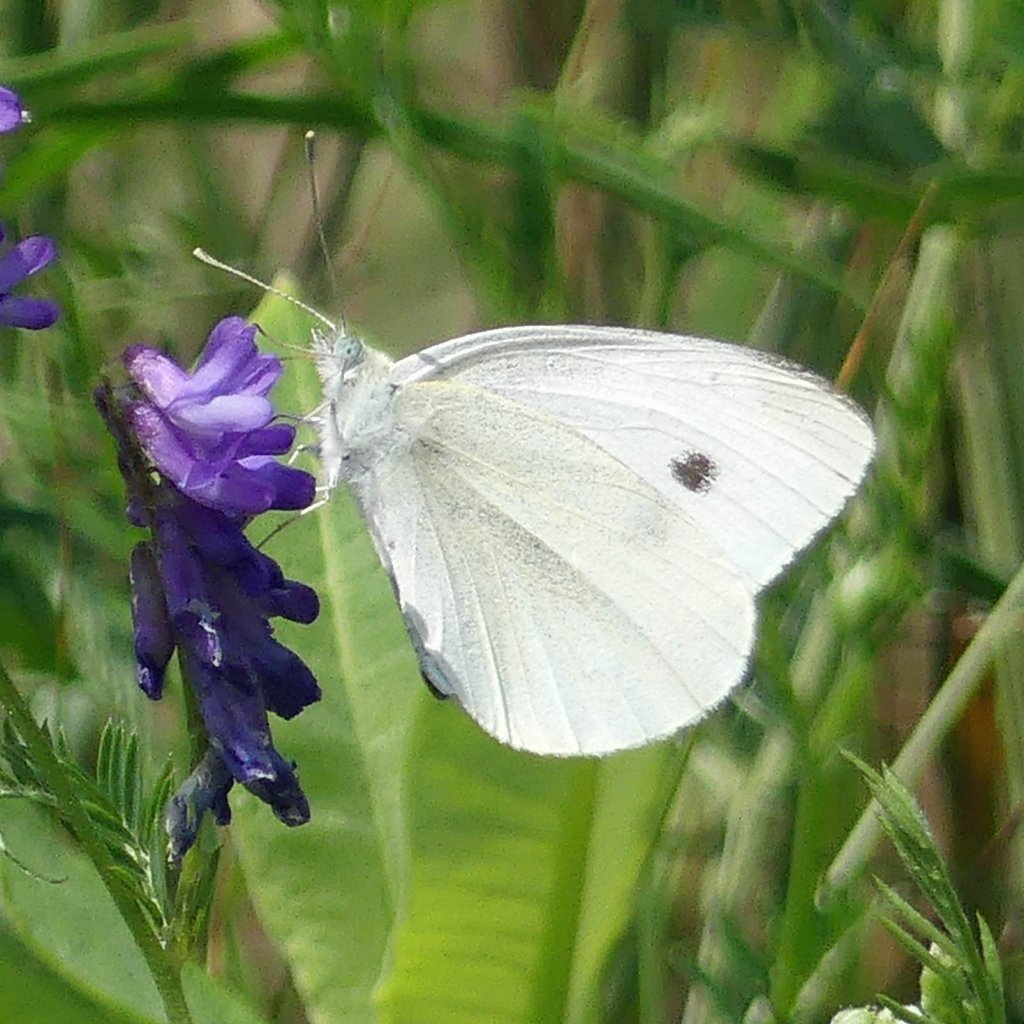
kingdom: Animalia
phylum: Arthropoda
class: Insecta
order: Lepidoptera
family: Pieridae
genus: Pieris
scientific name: Pieris rapae
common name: Cabbage White
